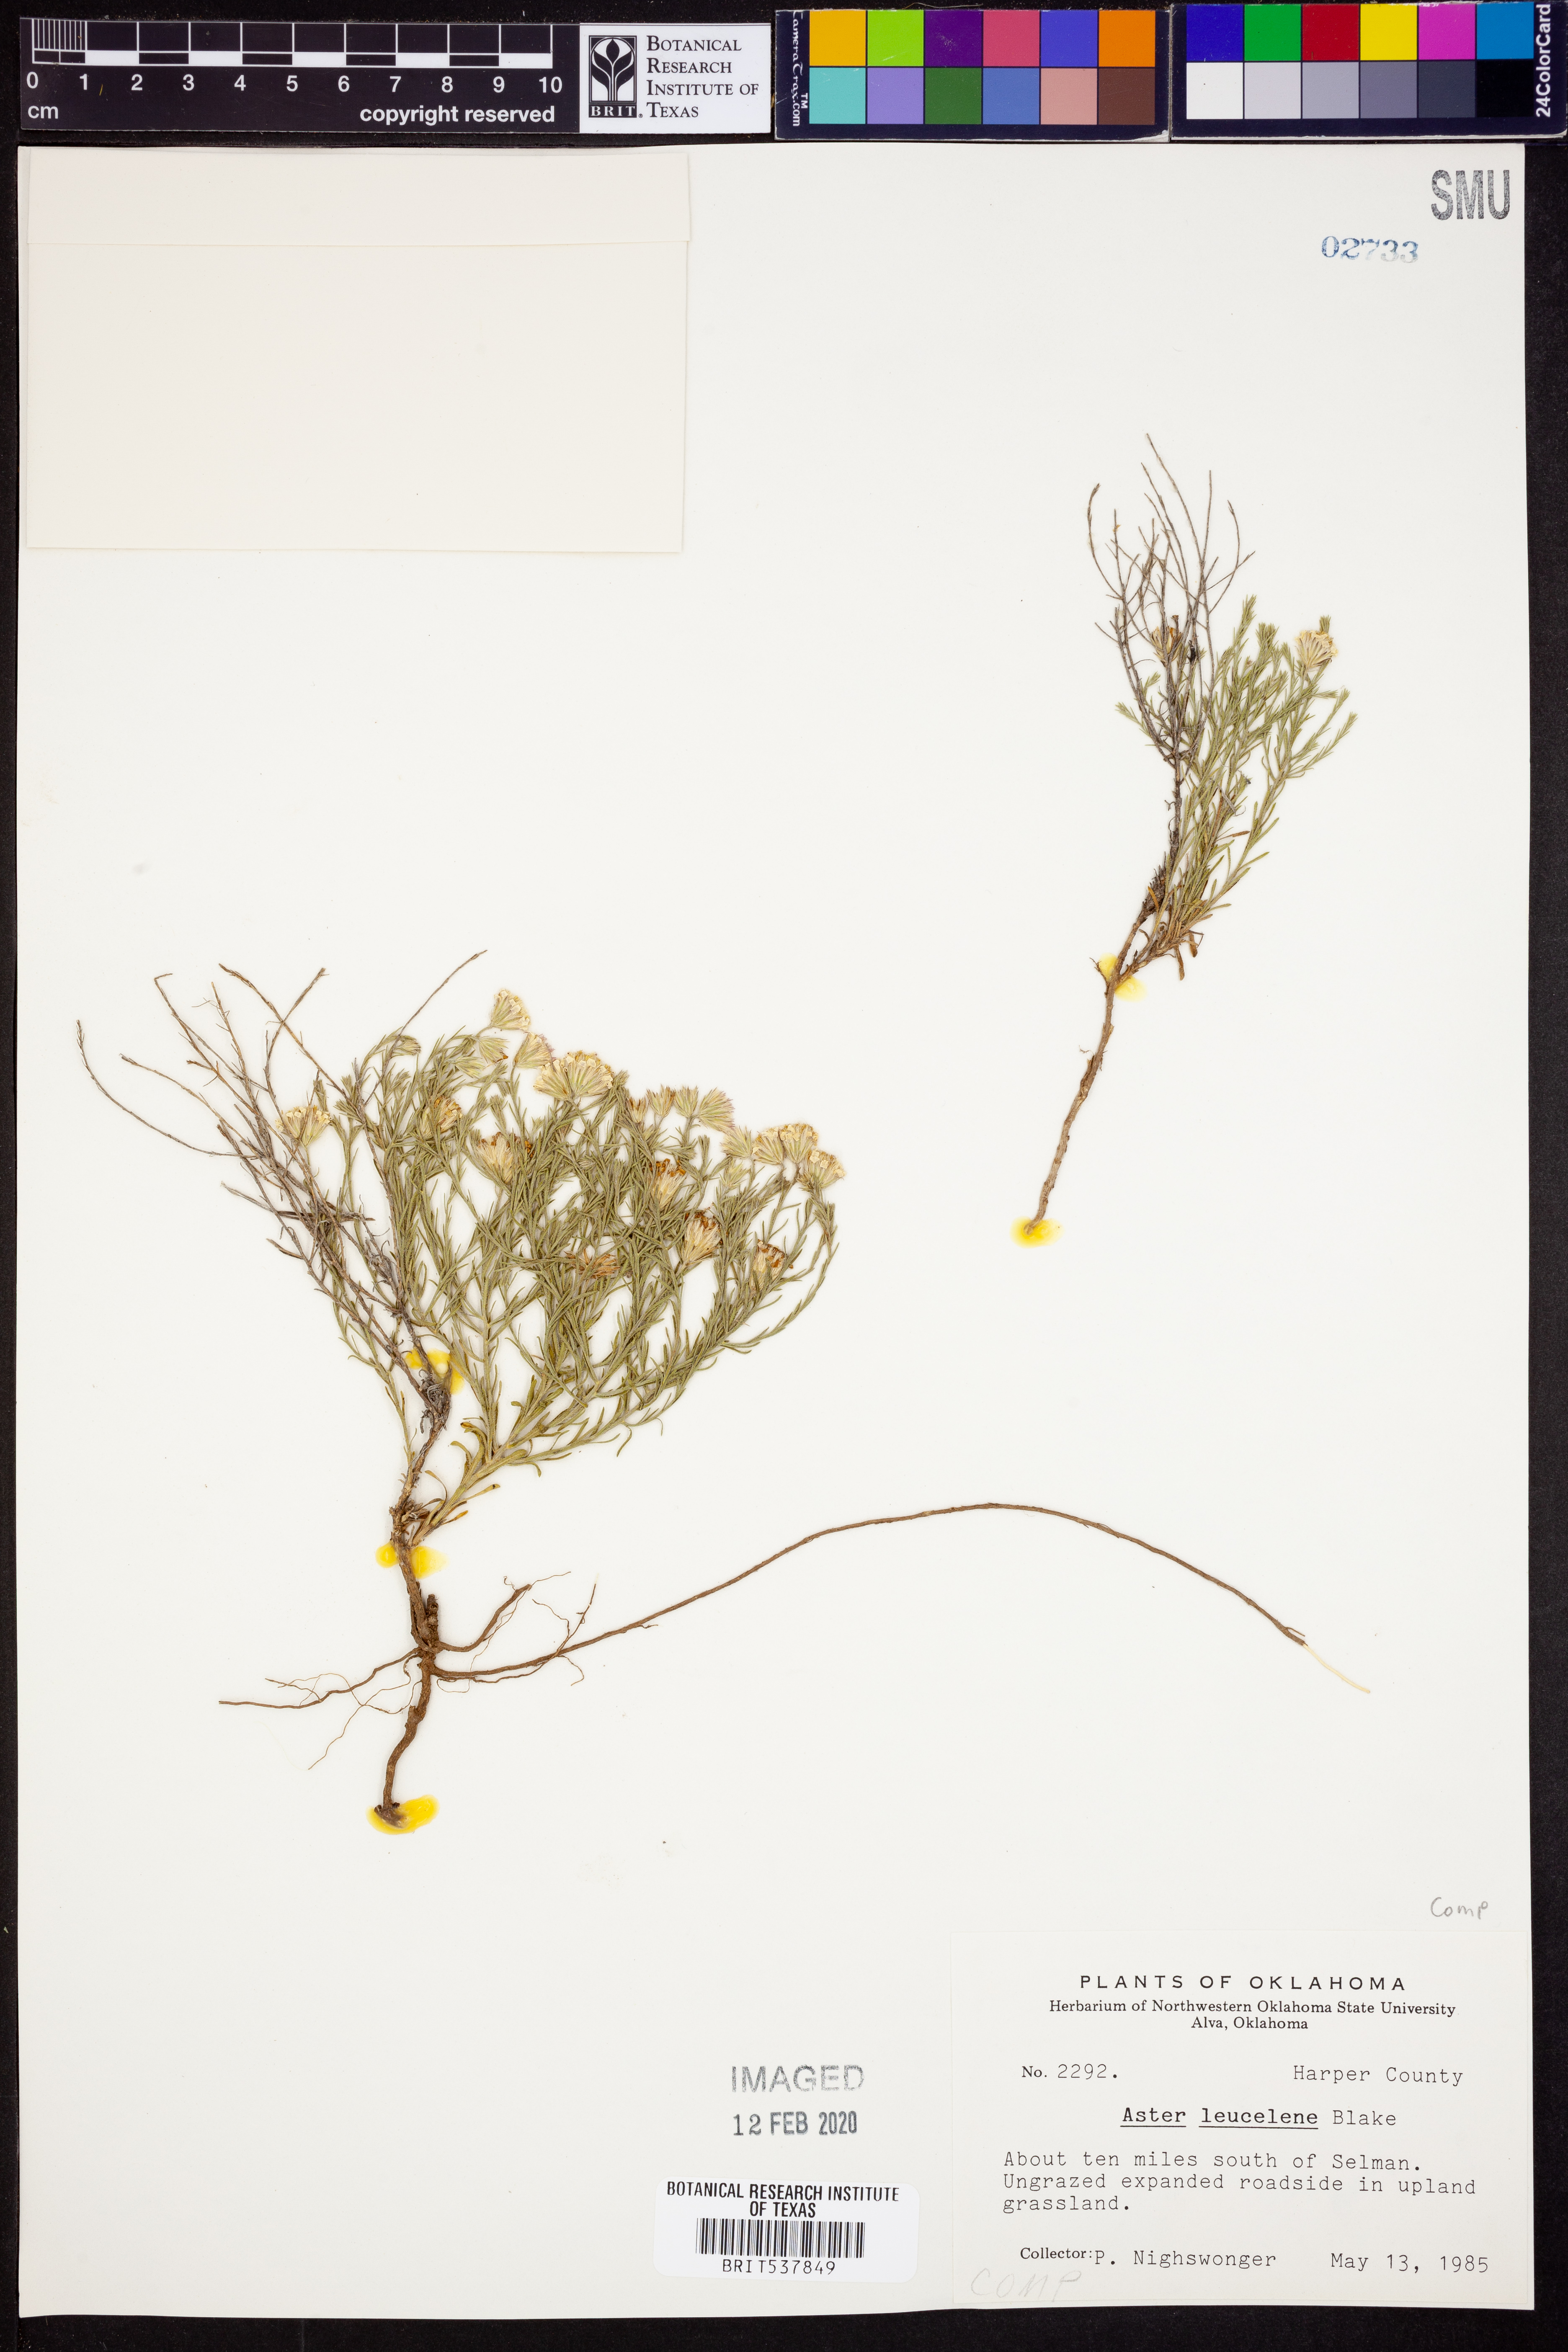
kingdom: Plantae
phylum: Tracheophyta
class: Magnoliopsida
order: Asterales
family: Asteraceae
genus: Chaetopappa
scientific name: Chaetopappa ericoides
